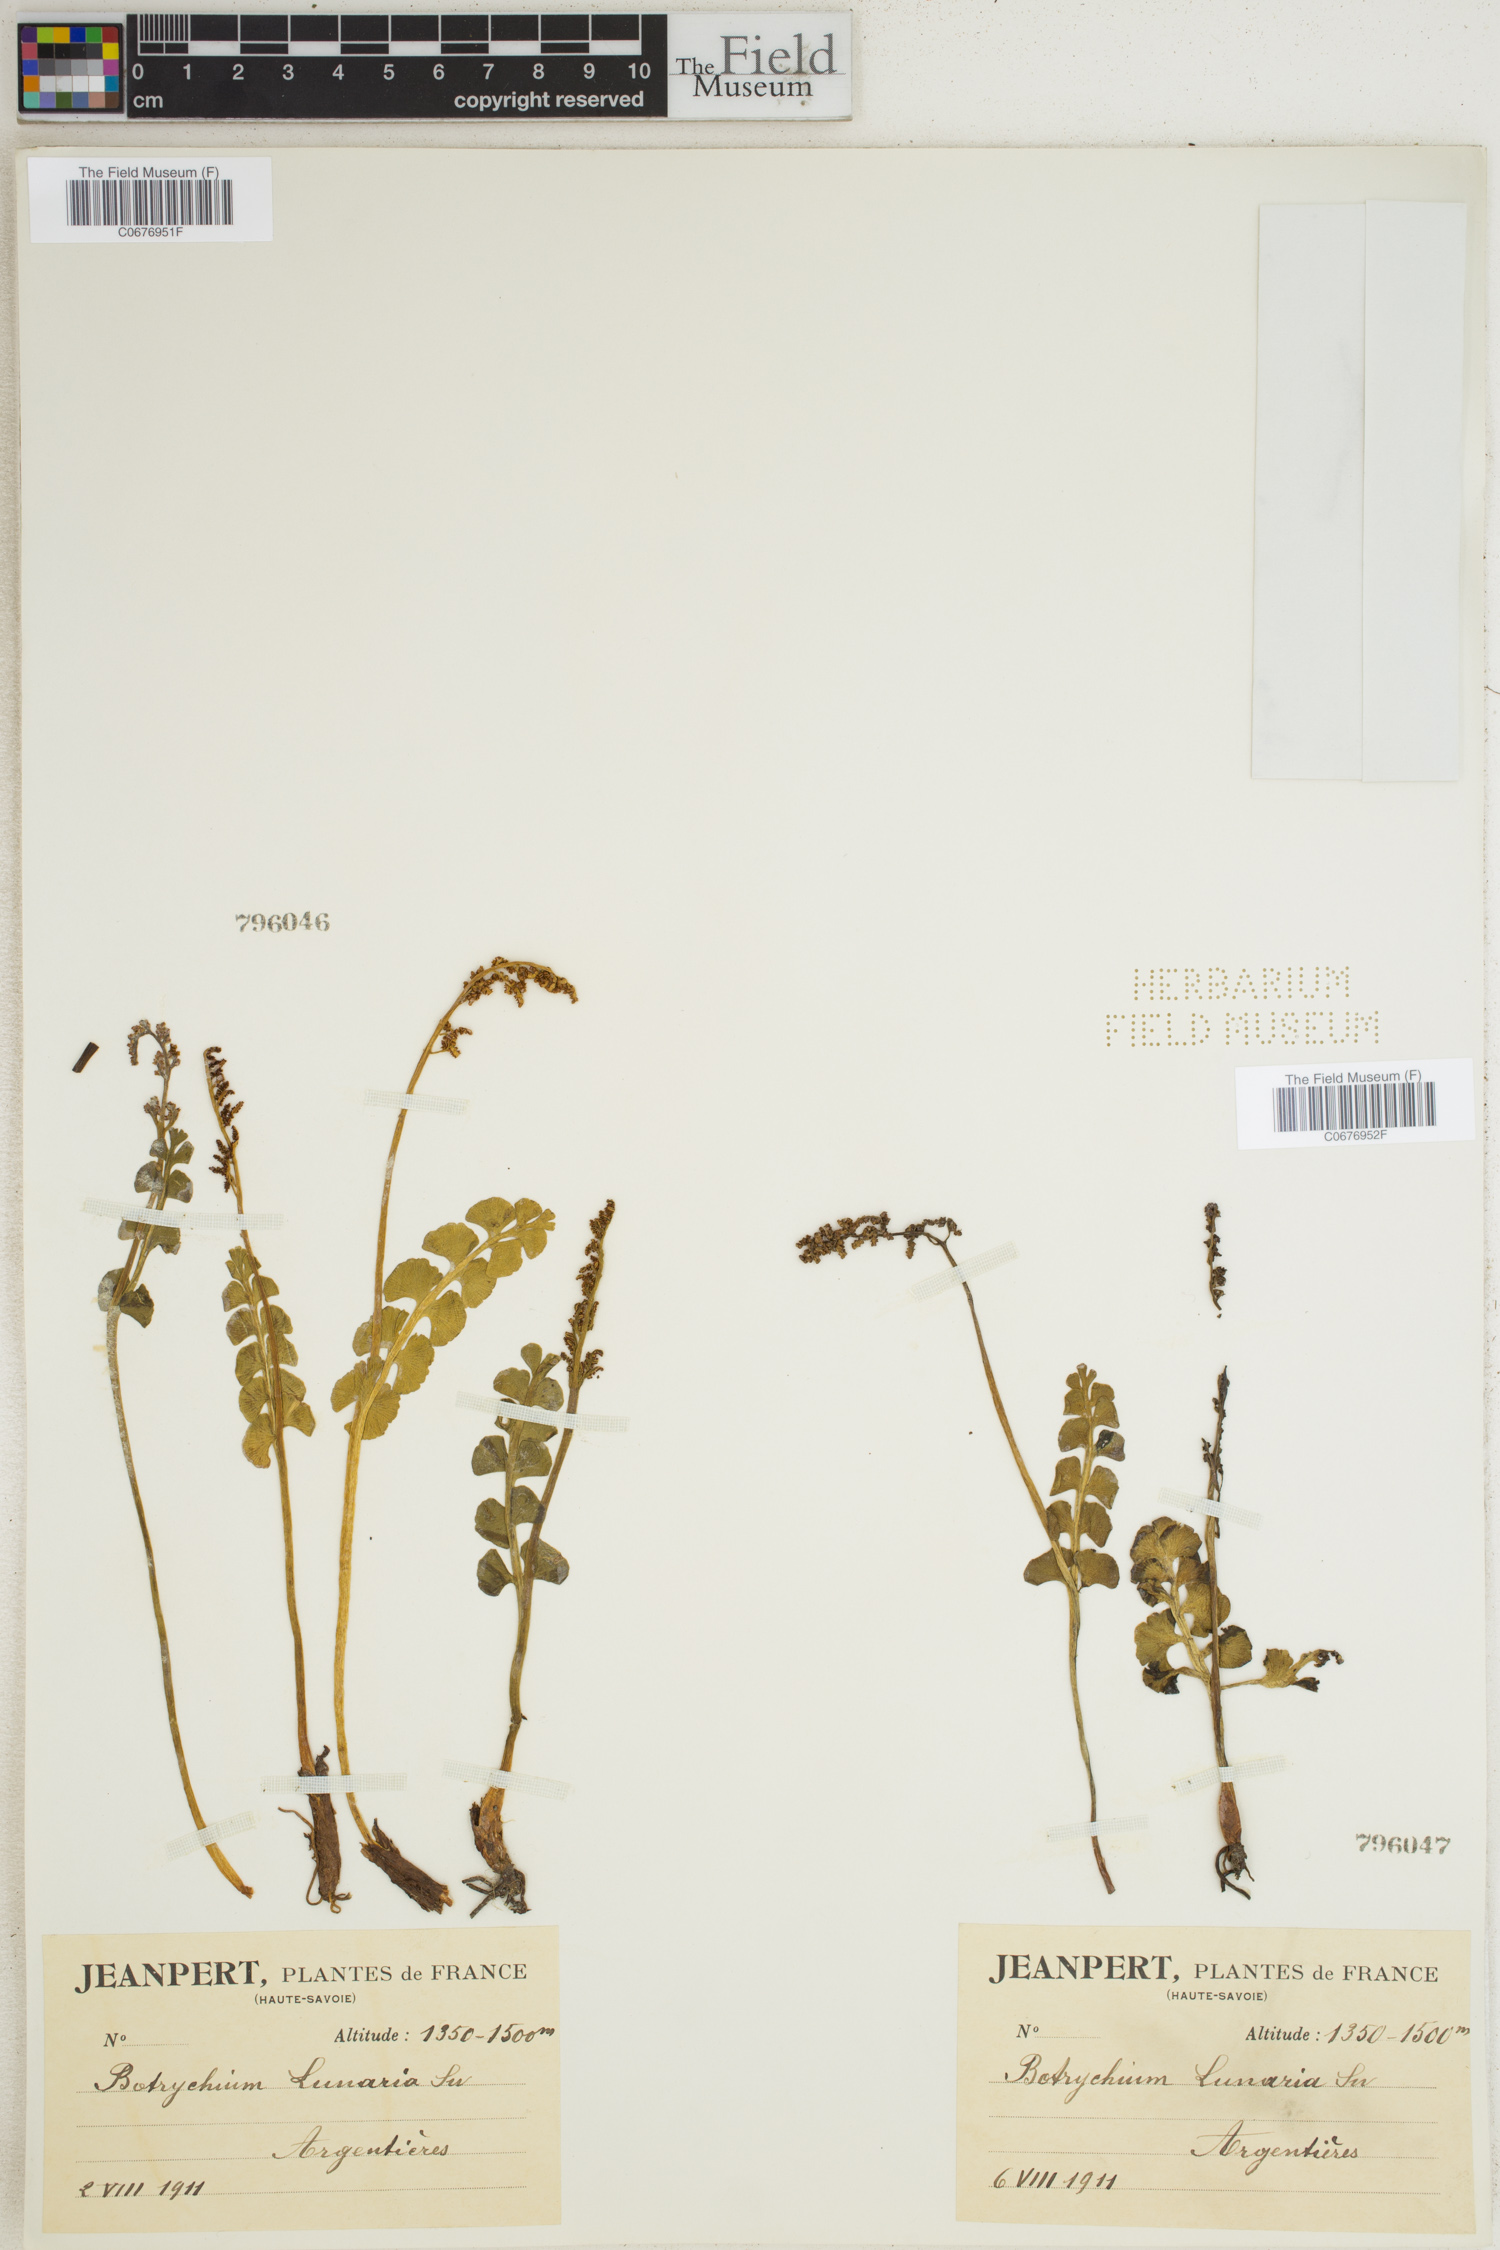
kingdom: Plantae
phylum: Tracheophyta
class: Polypodiopsida
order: Ophioglossales
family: Ophioglossaceae
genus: Botrychium
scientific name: Botrychium lunaria
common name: Moonwort
